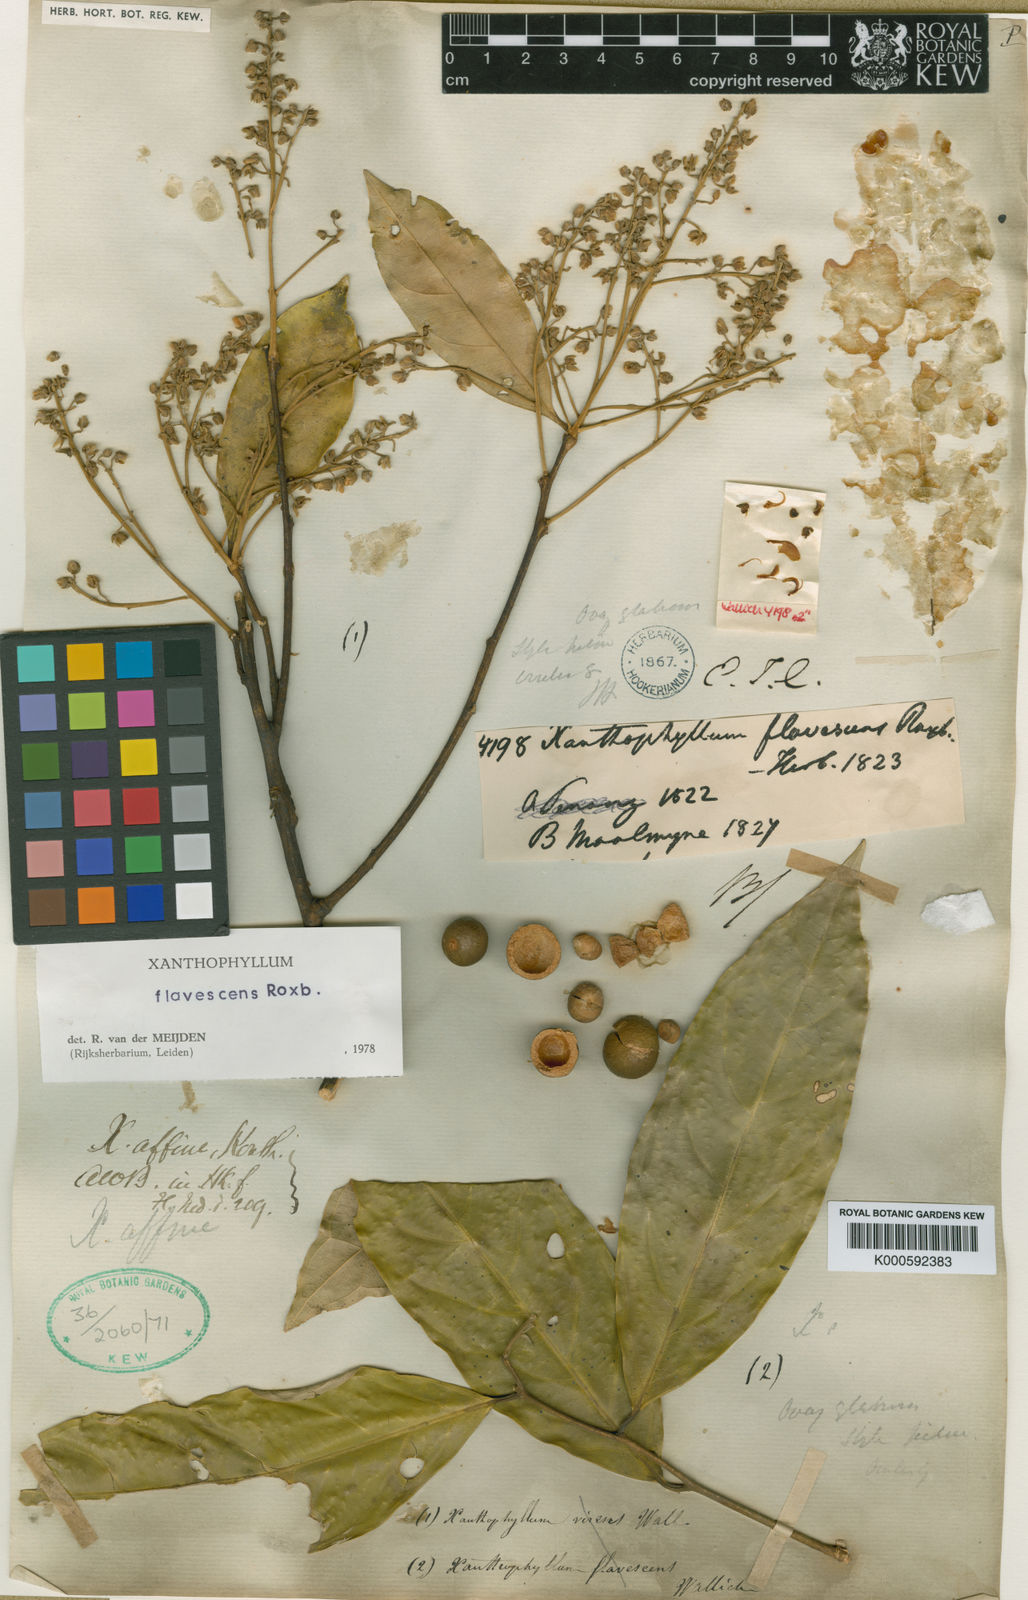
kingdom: Plantae
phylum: Tracheophyta
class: Magnoliopsida
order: Fabales
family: Polygalaceae
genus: Xanthophyllum
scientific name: Xanthophyllum flavescens
